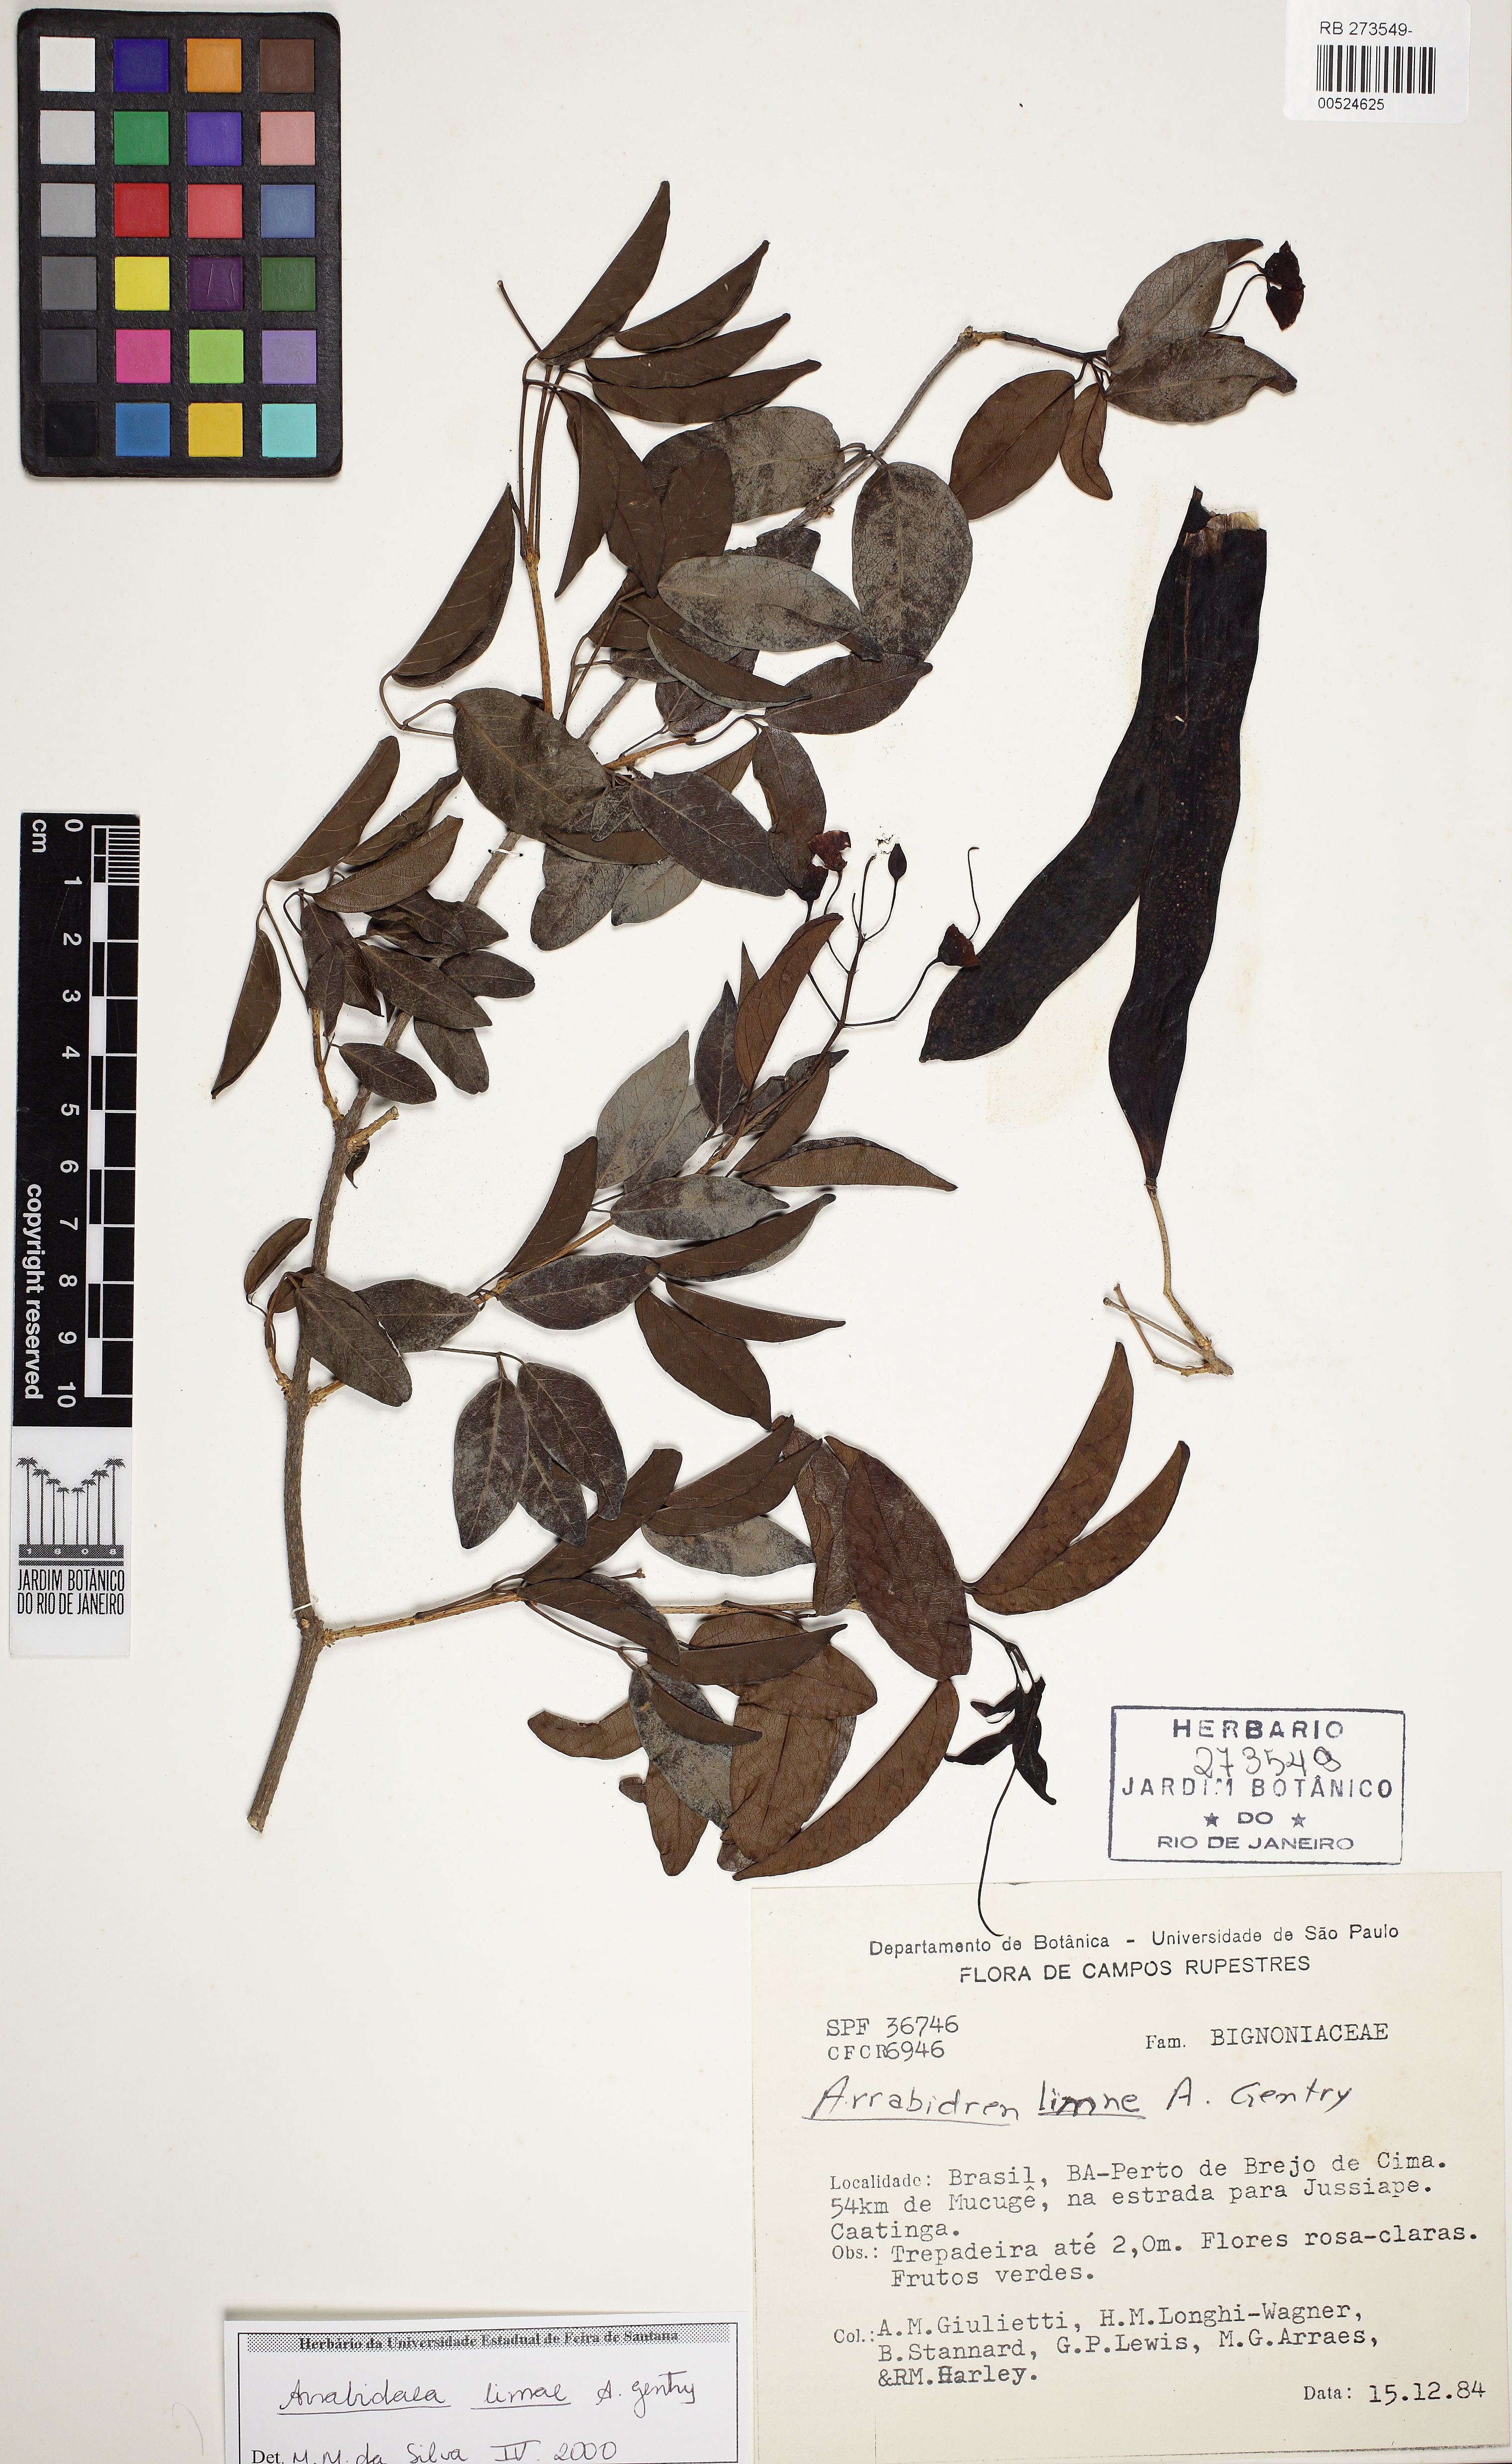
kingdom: Plantae
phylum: Tracheophyta
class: Magnoliopsida
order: Lamiales
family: Bignoniaceae
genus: Fridericia
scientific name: Fridericia limae
